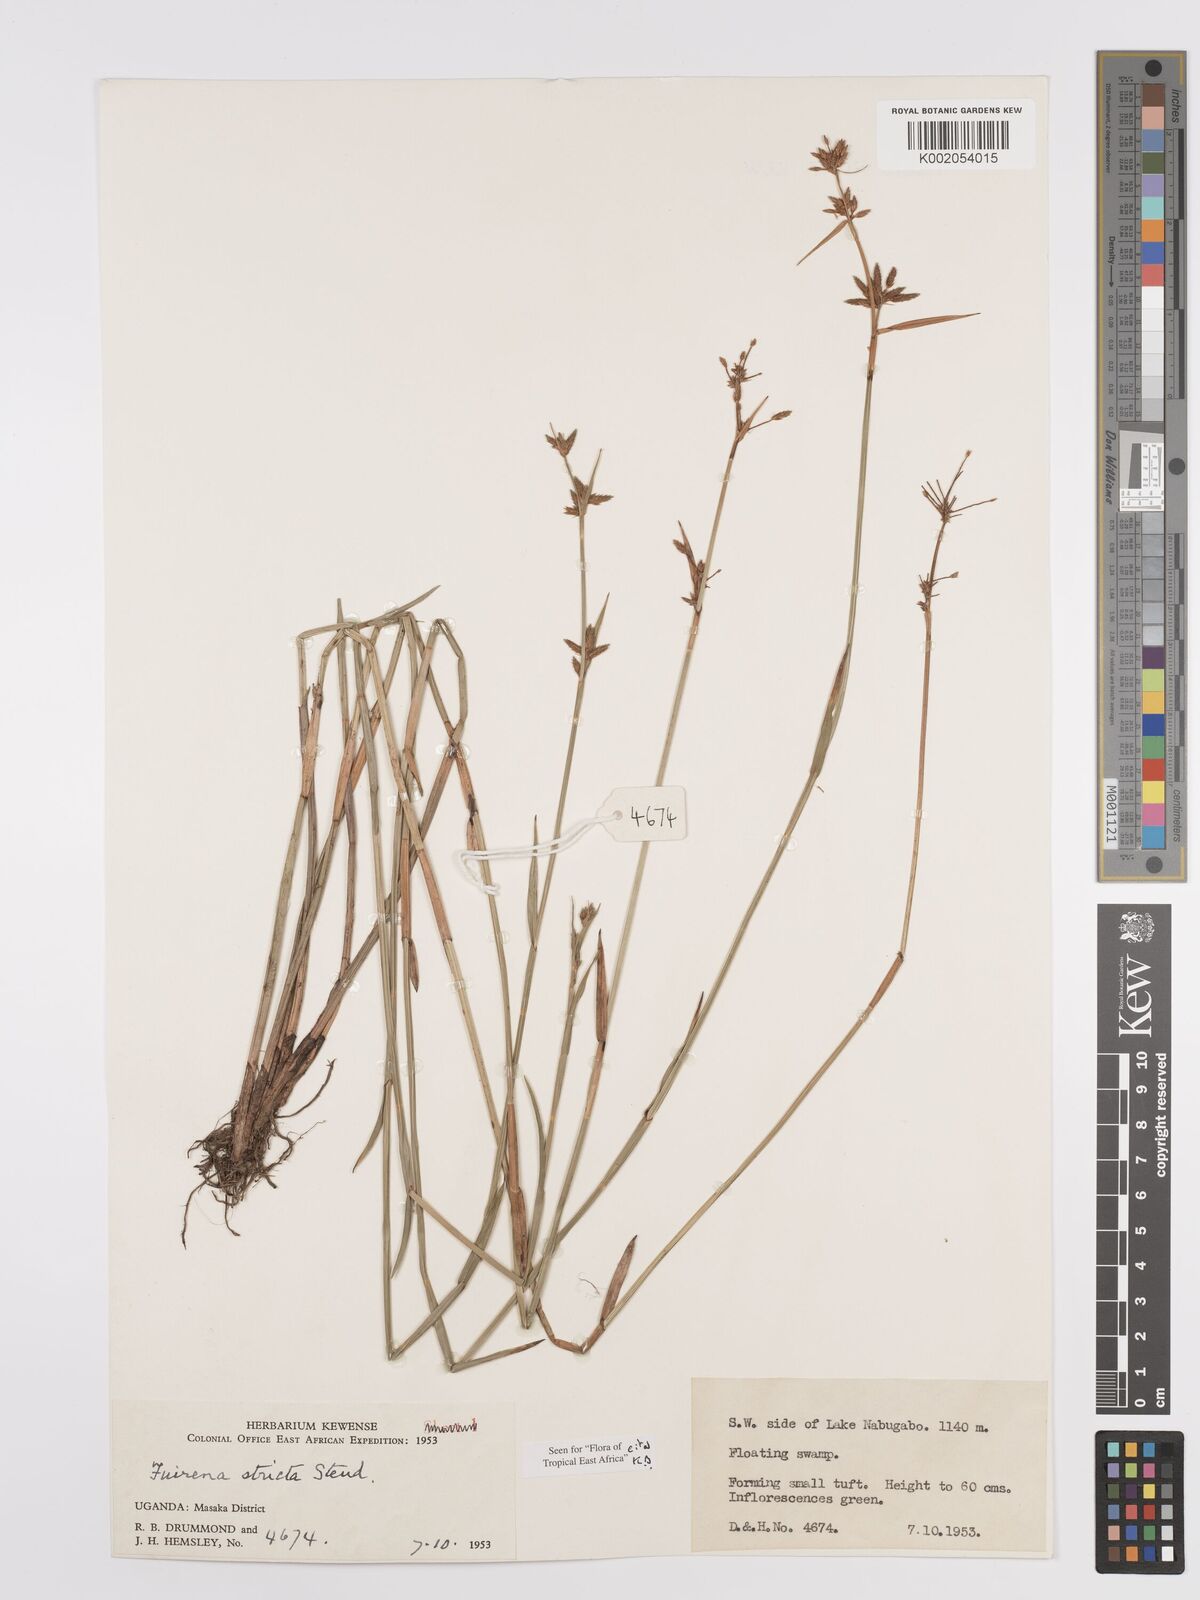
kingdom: Plantae
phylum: Tracheophyta
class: Liliopsida
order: Poales
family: Cyperaceae
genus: Fuirena
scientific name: Fuirena stricta
